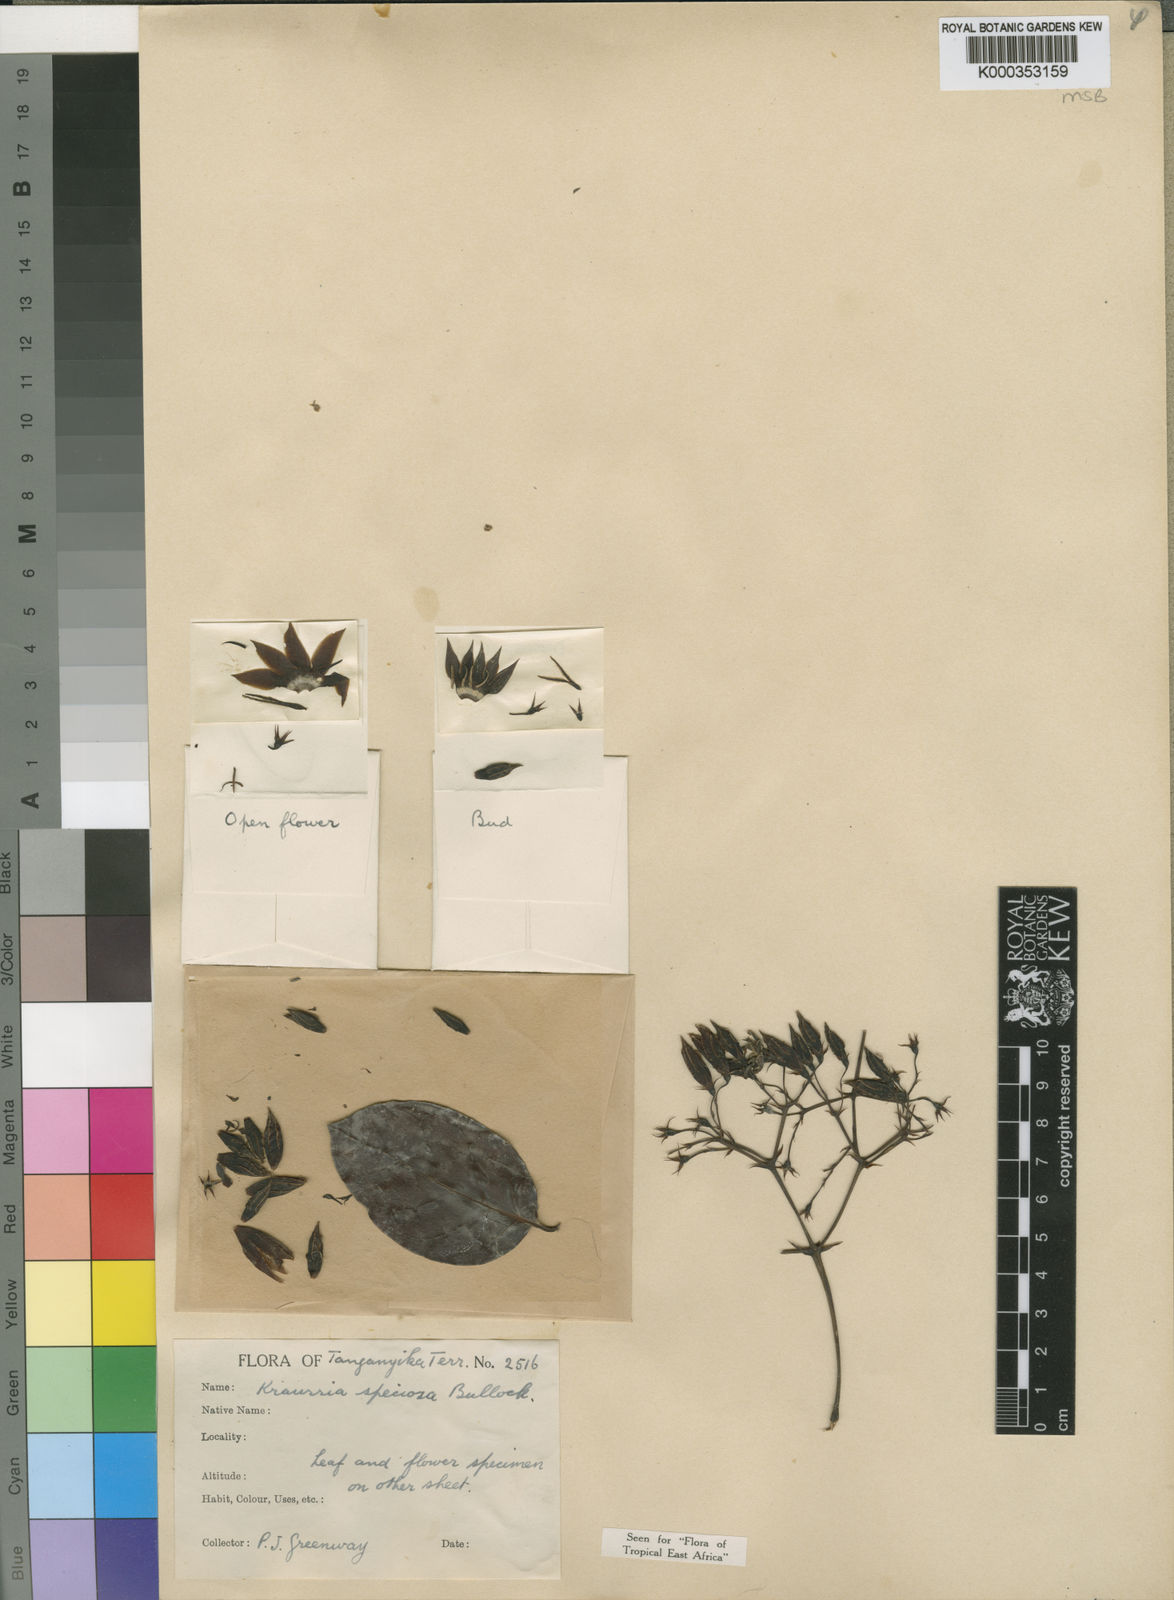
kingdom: Plantae
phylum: Tracheophyta
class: Magnoliopsida
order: Gentianales
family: Rubiaceae
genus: Kraussia
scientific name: Kraussia speciosa
